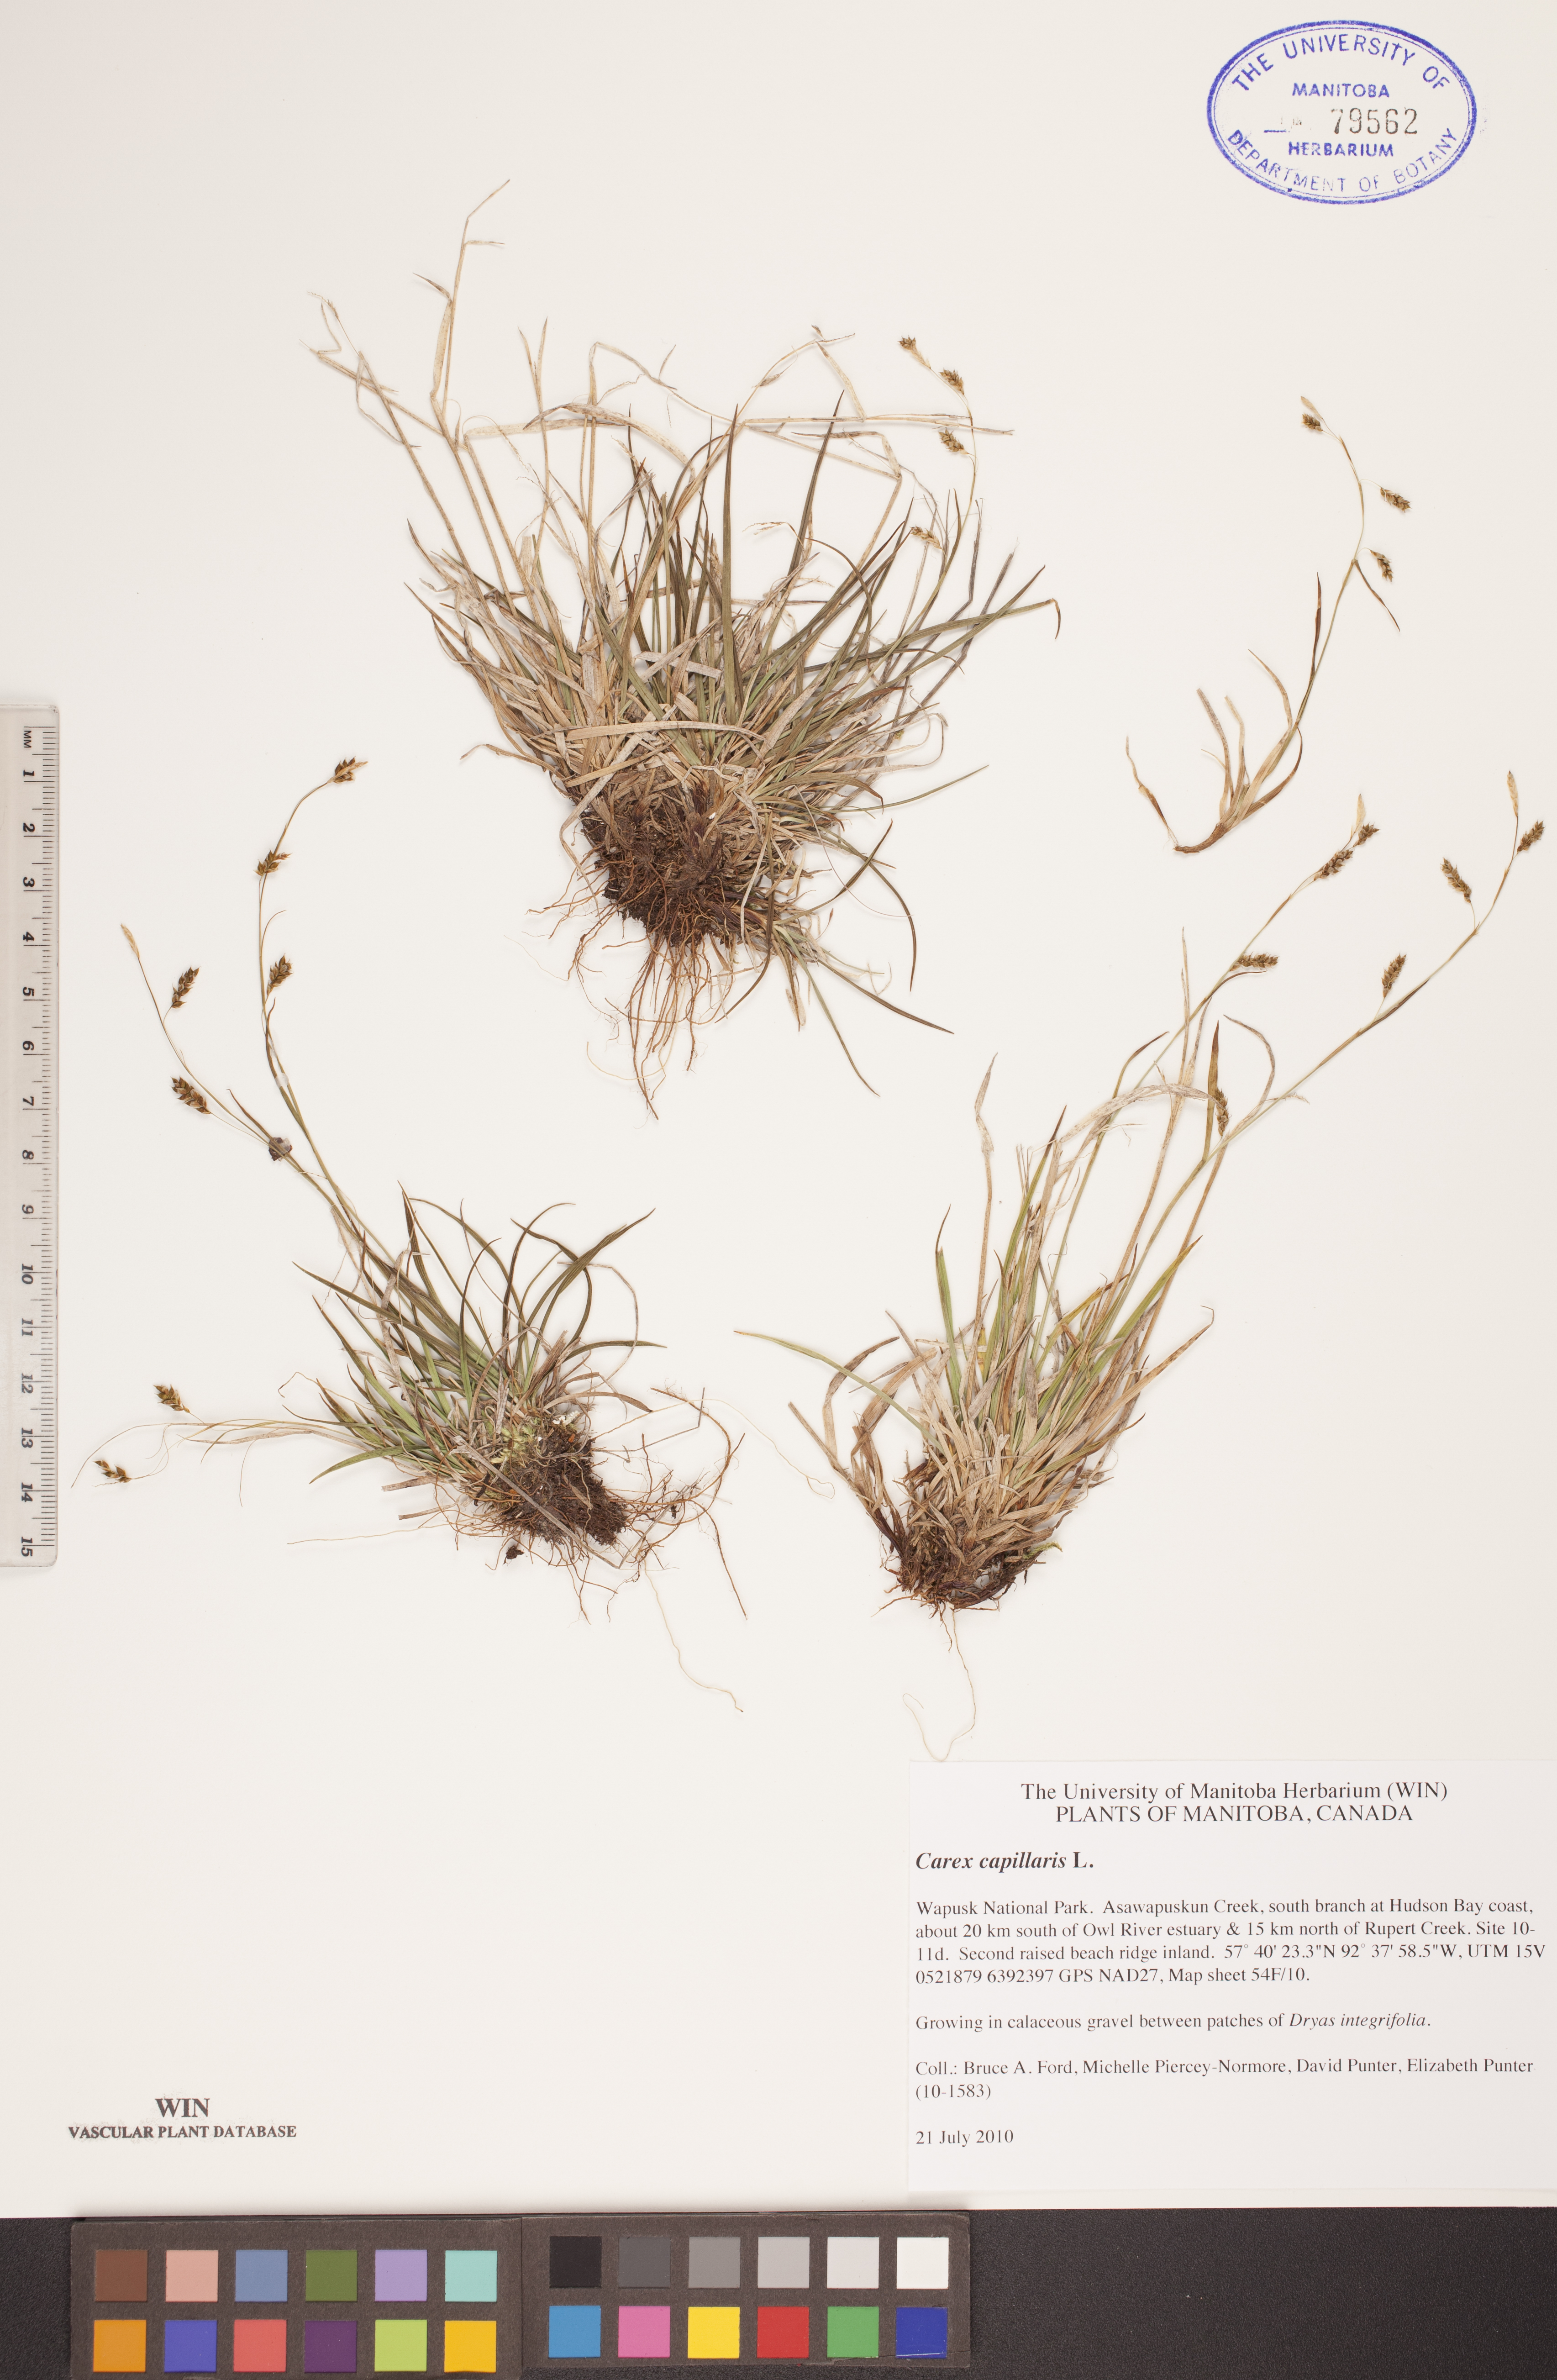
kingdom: Plantae
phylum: Tracheophyta
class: Liliopsida
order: Poales
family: Cyperaceae
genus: Carex
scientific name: Carex capillaris
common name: Hair sedge
